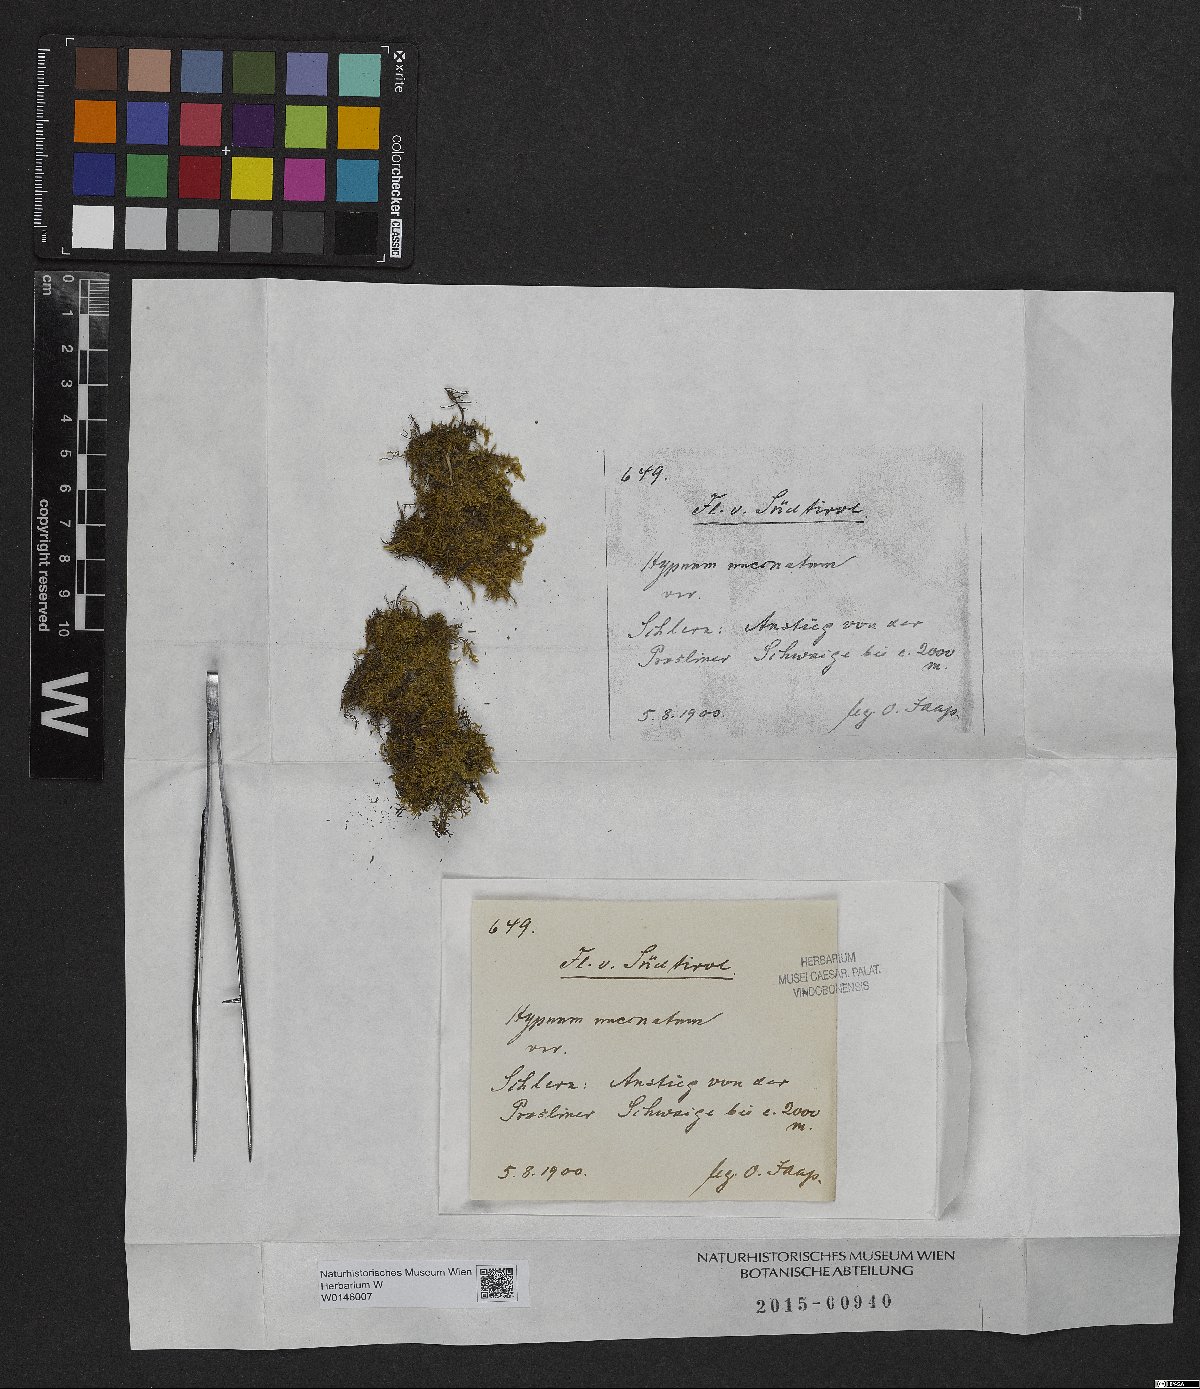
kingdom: Plantae
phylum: Bryophyta
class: Bryopsida
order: Hypnales
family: Scorpidiaceae
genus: Sanionia
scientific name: Sanionia uncinata
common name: Sickle moss
